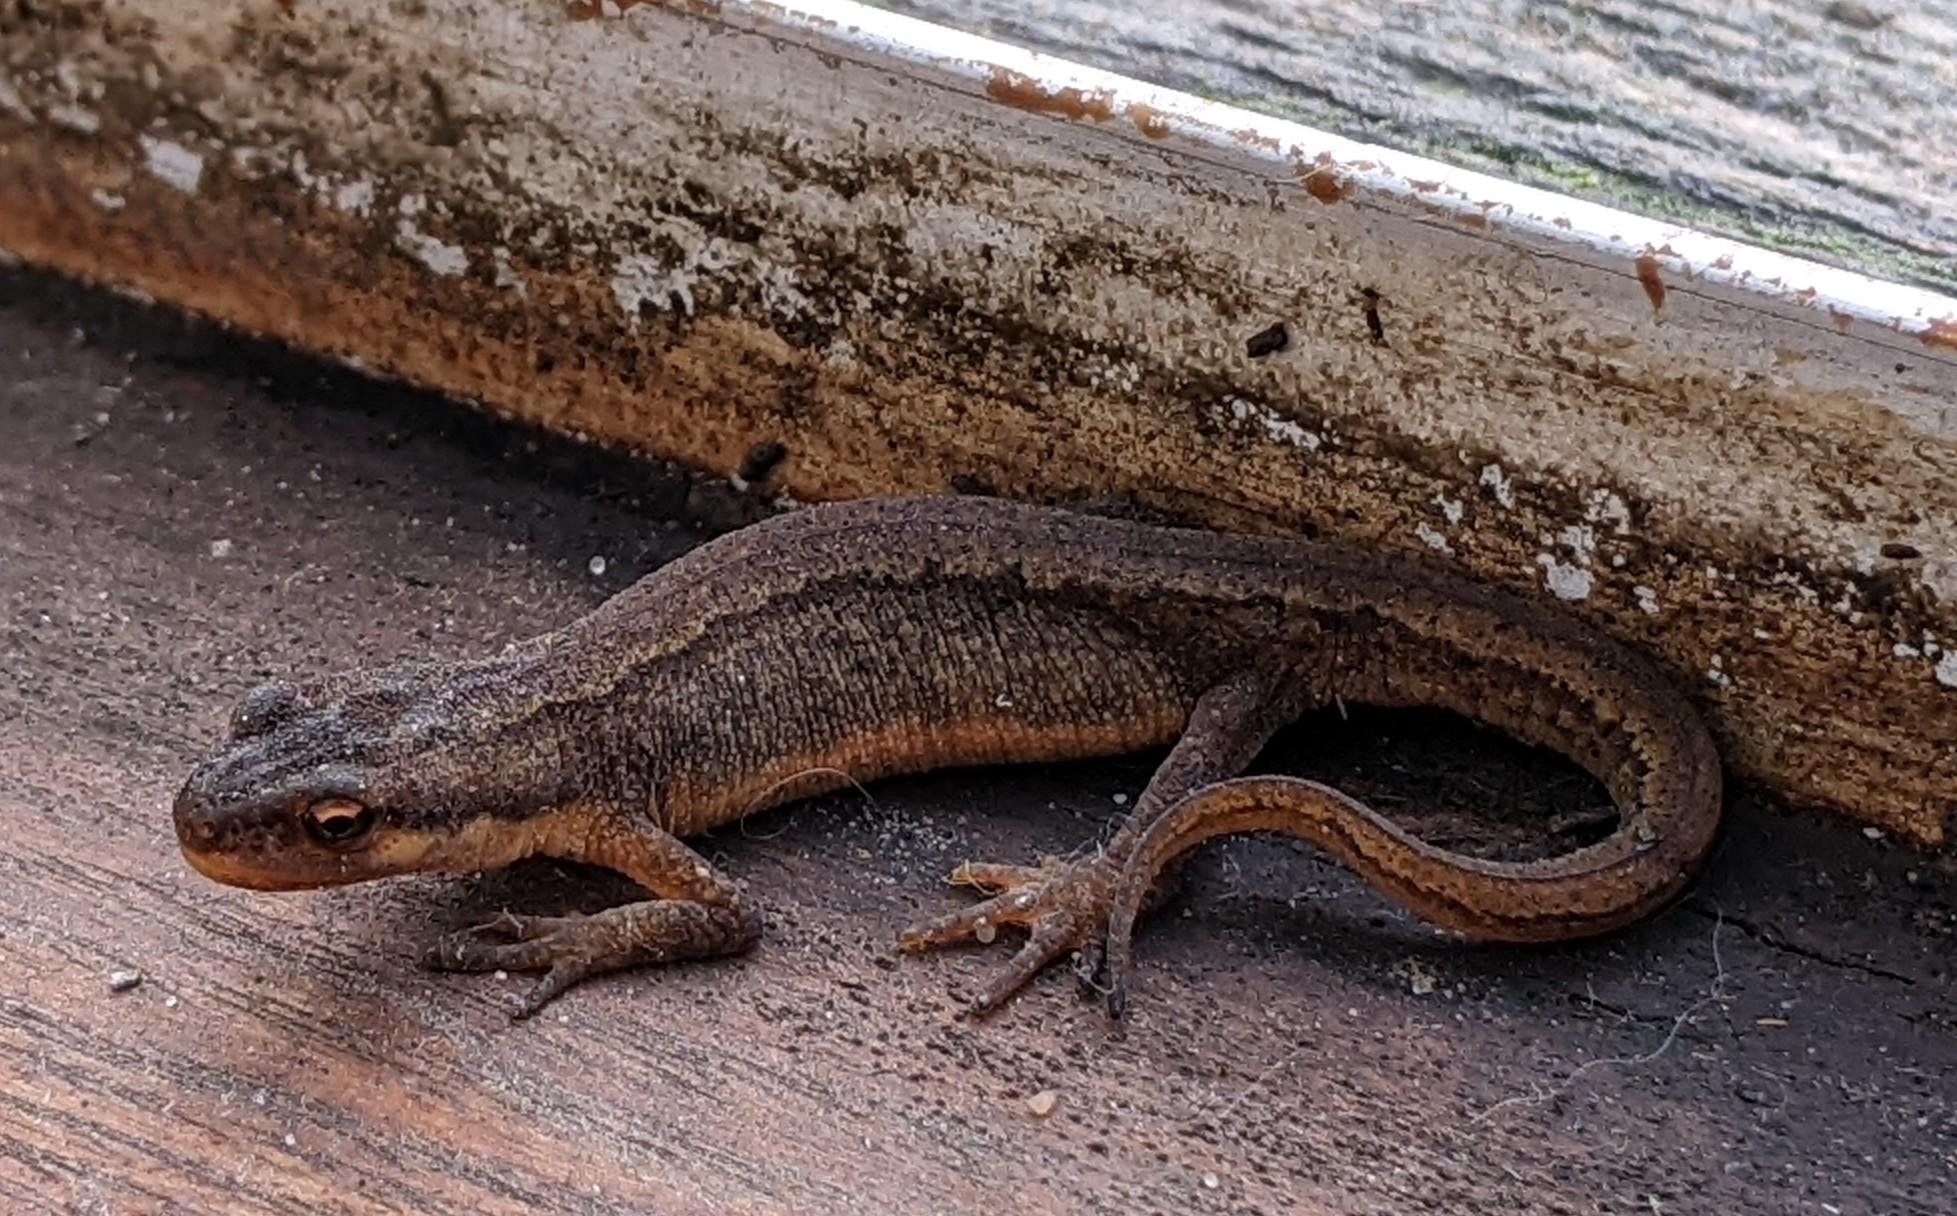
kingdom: Animalia
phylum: Chordata
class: Amphibia
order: Caudata
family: Salamandridae
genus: Lissotriton
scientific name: Lissotriton vulgaris
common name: Lille vandsalamander
